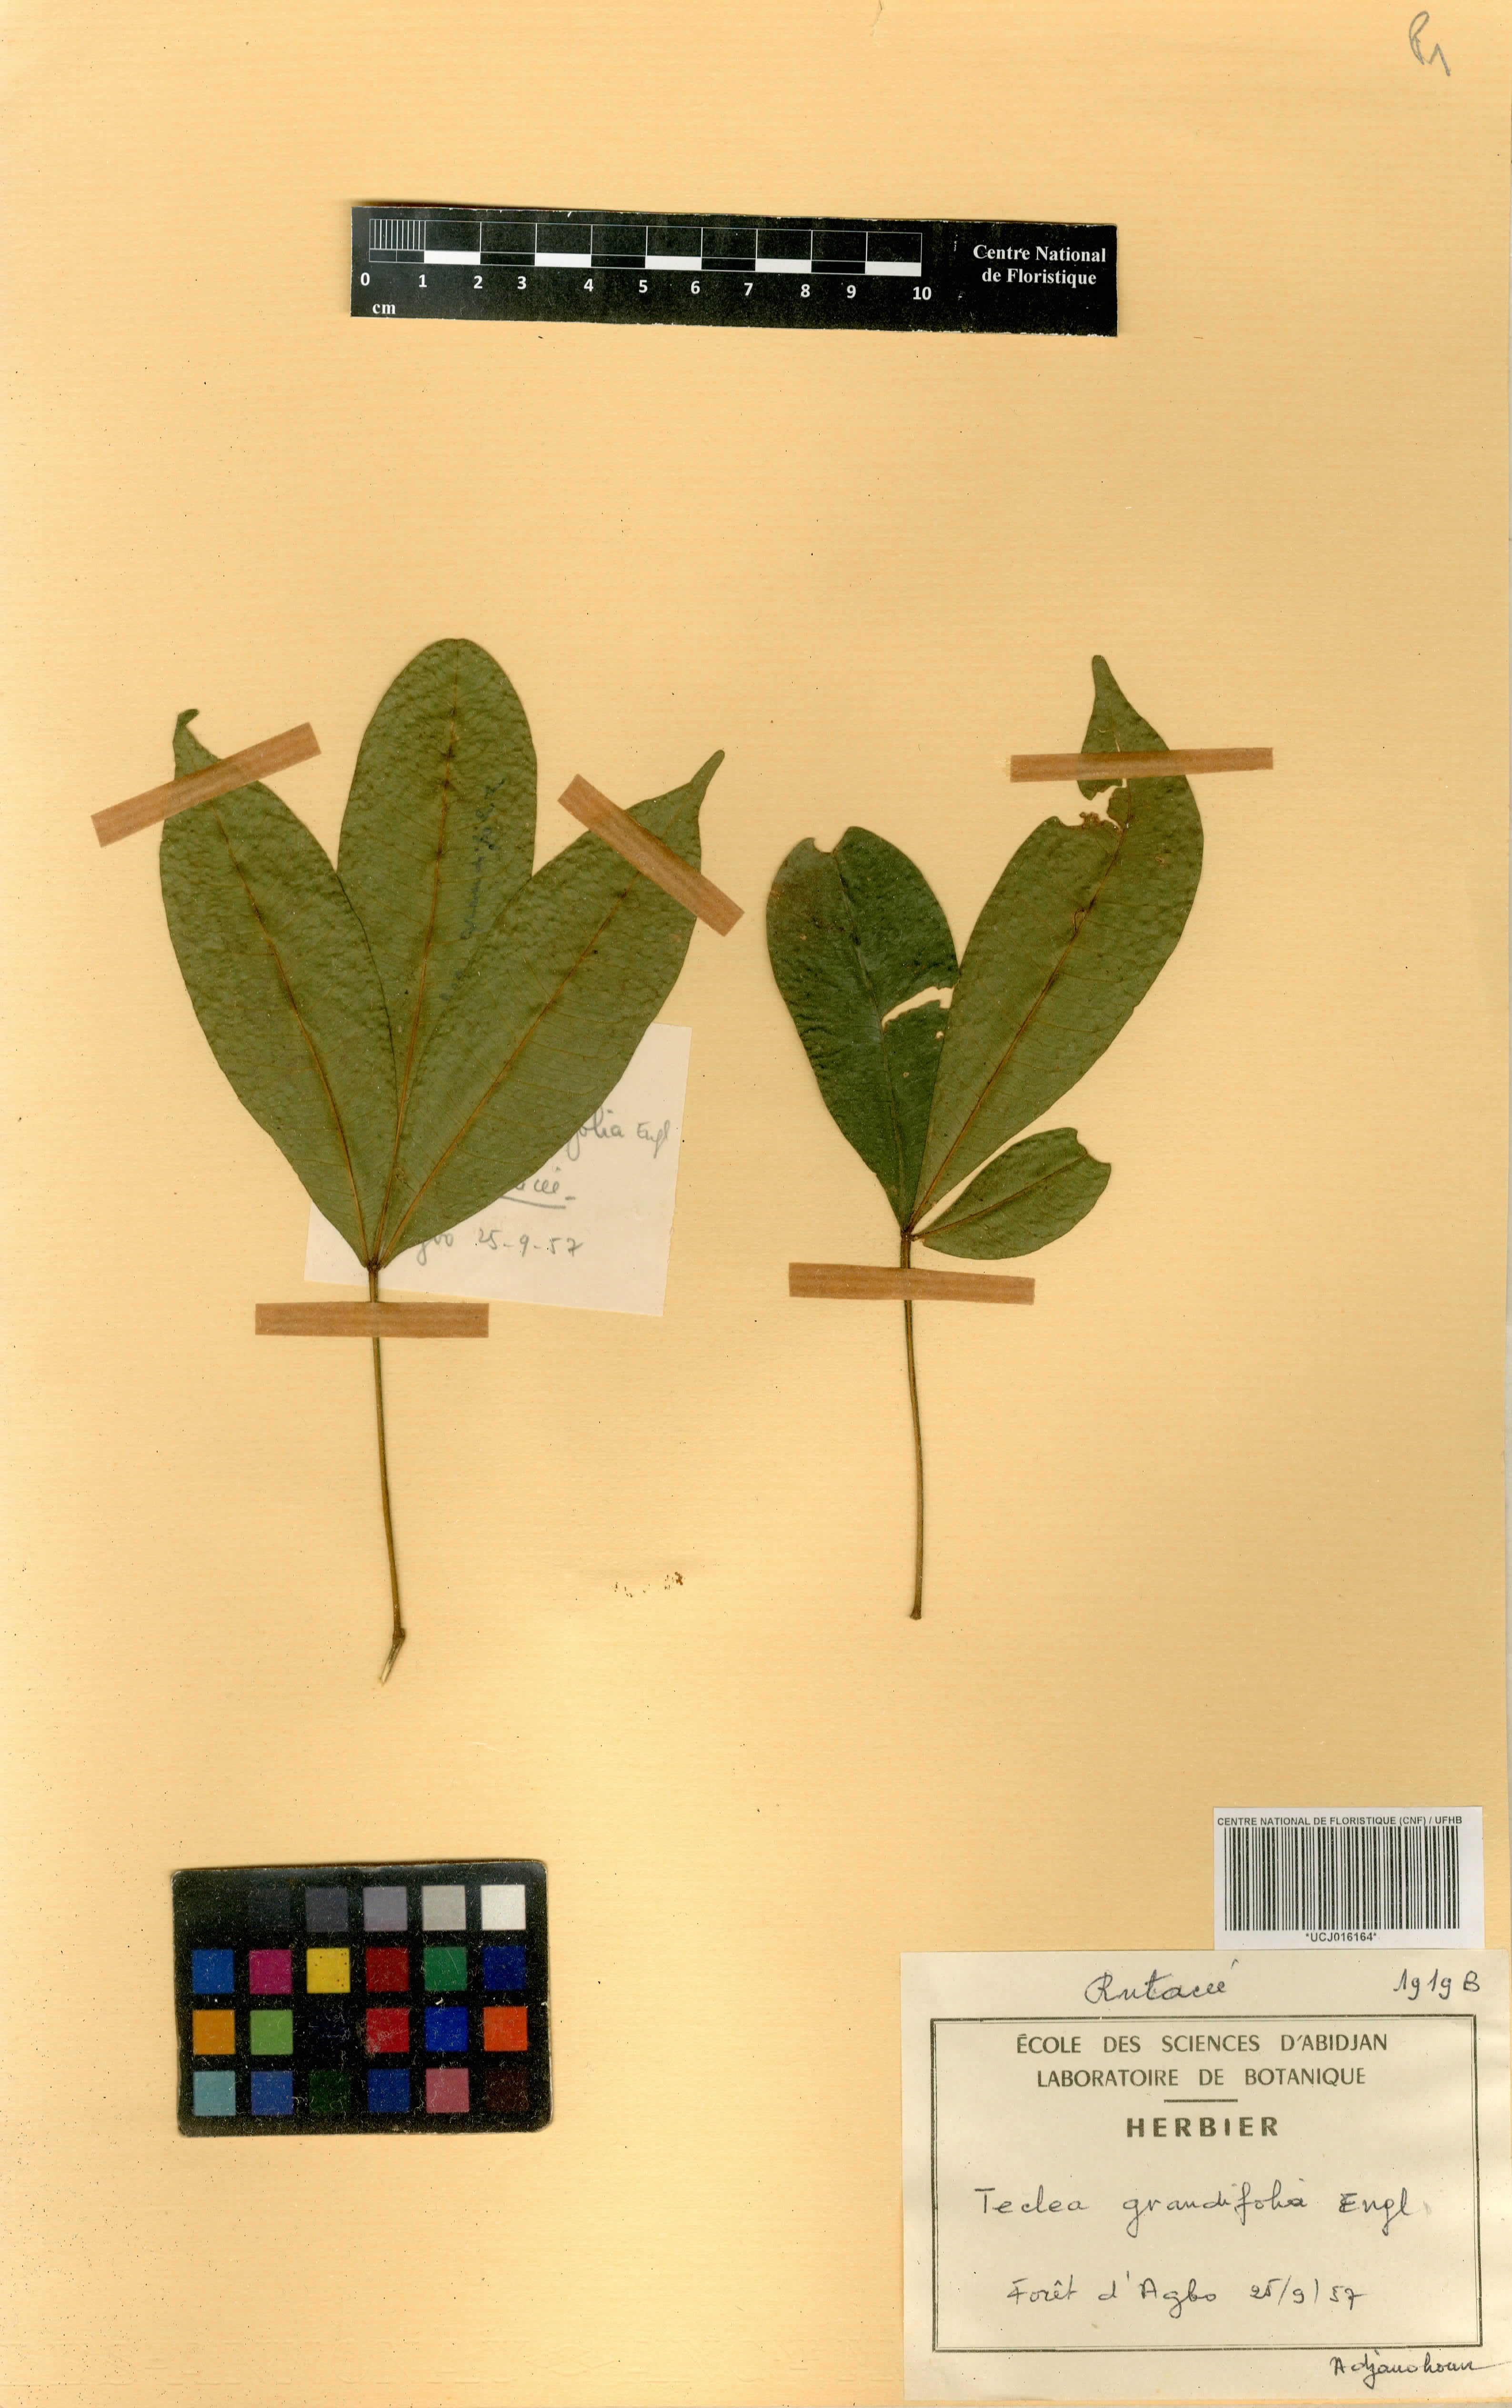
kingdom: Plantae
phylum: Tracheophyta
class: Magnoliopsida
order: Sapindales
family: Rutaceae
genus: Vepris
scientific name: Vepris grandifolia
